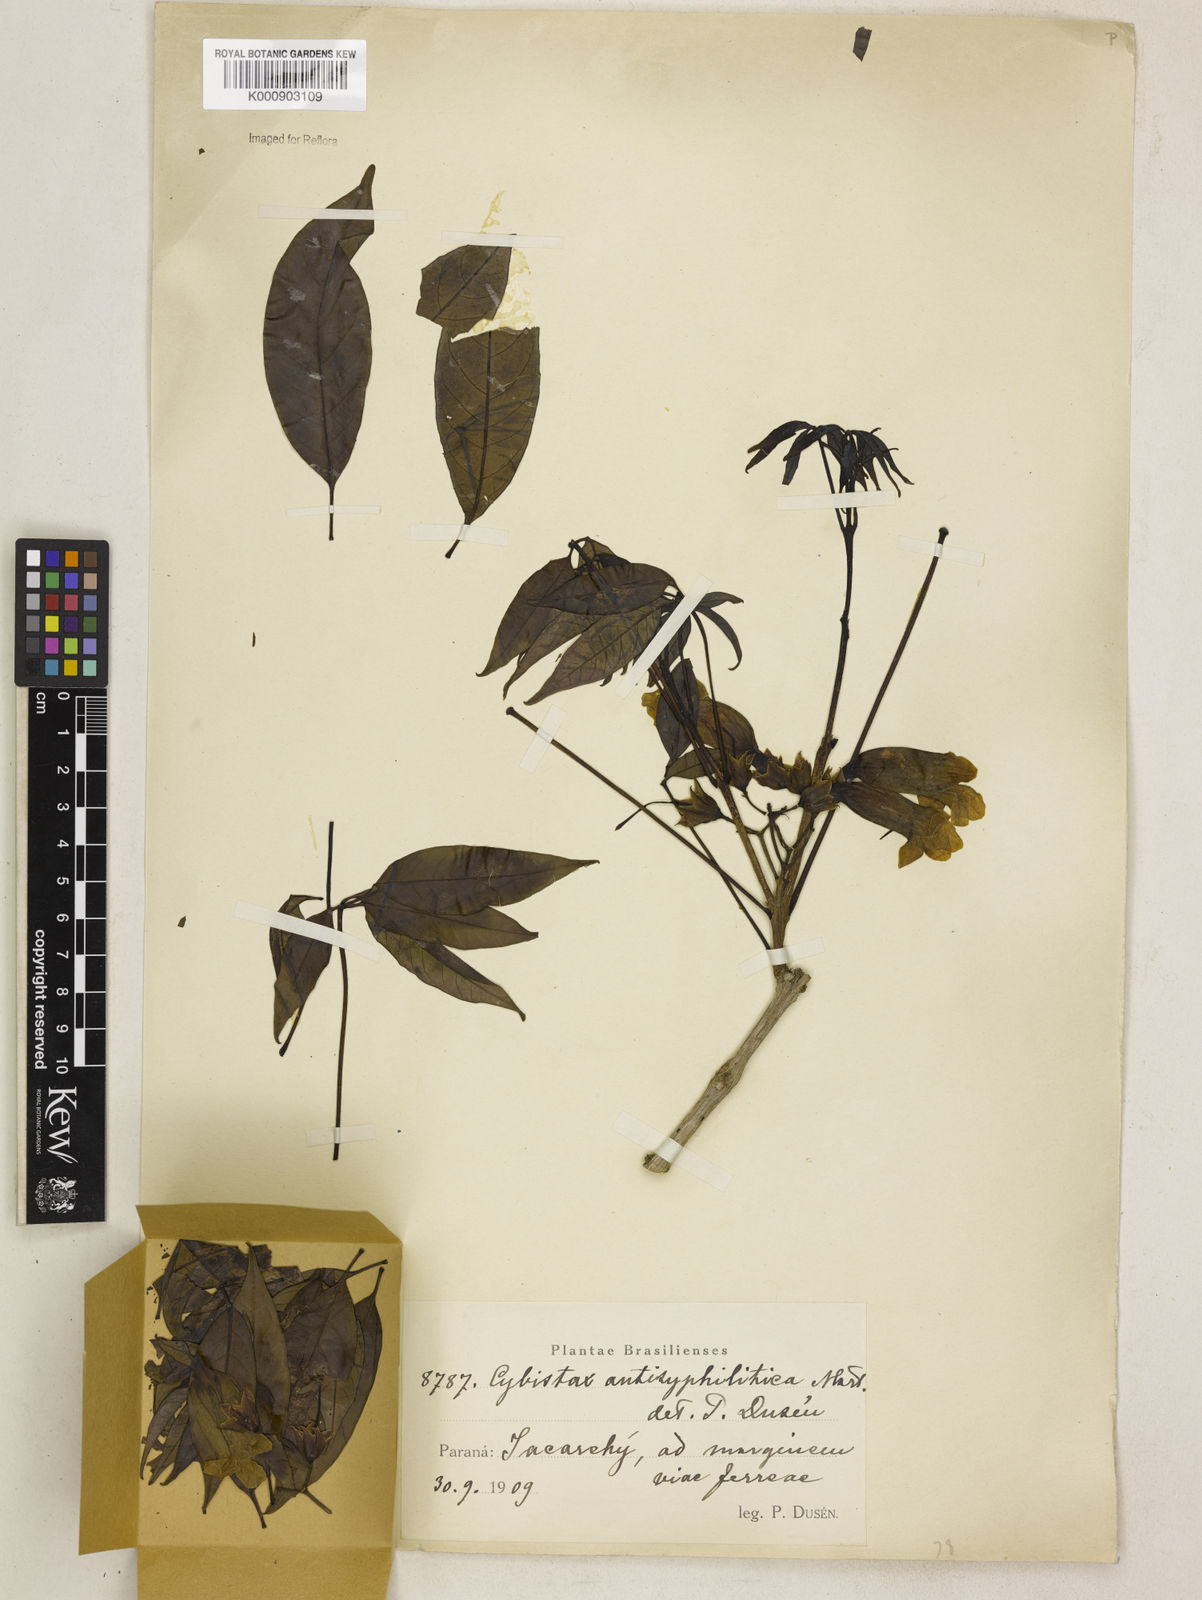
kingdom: Plantae
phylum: Tracheophyta
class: Magnoliopsida
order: Lamiales
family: Bignoniaceae
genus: Cybistax
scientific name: Cybistax antisyphilitica
